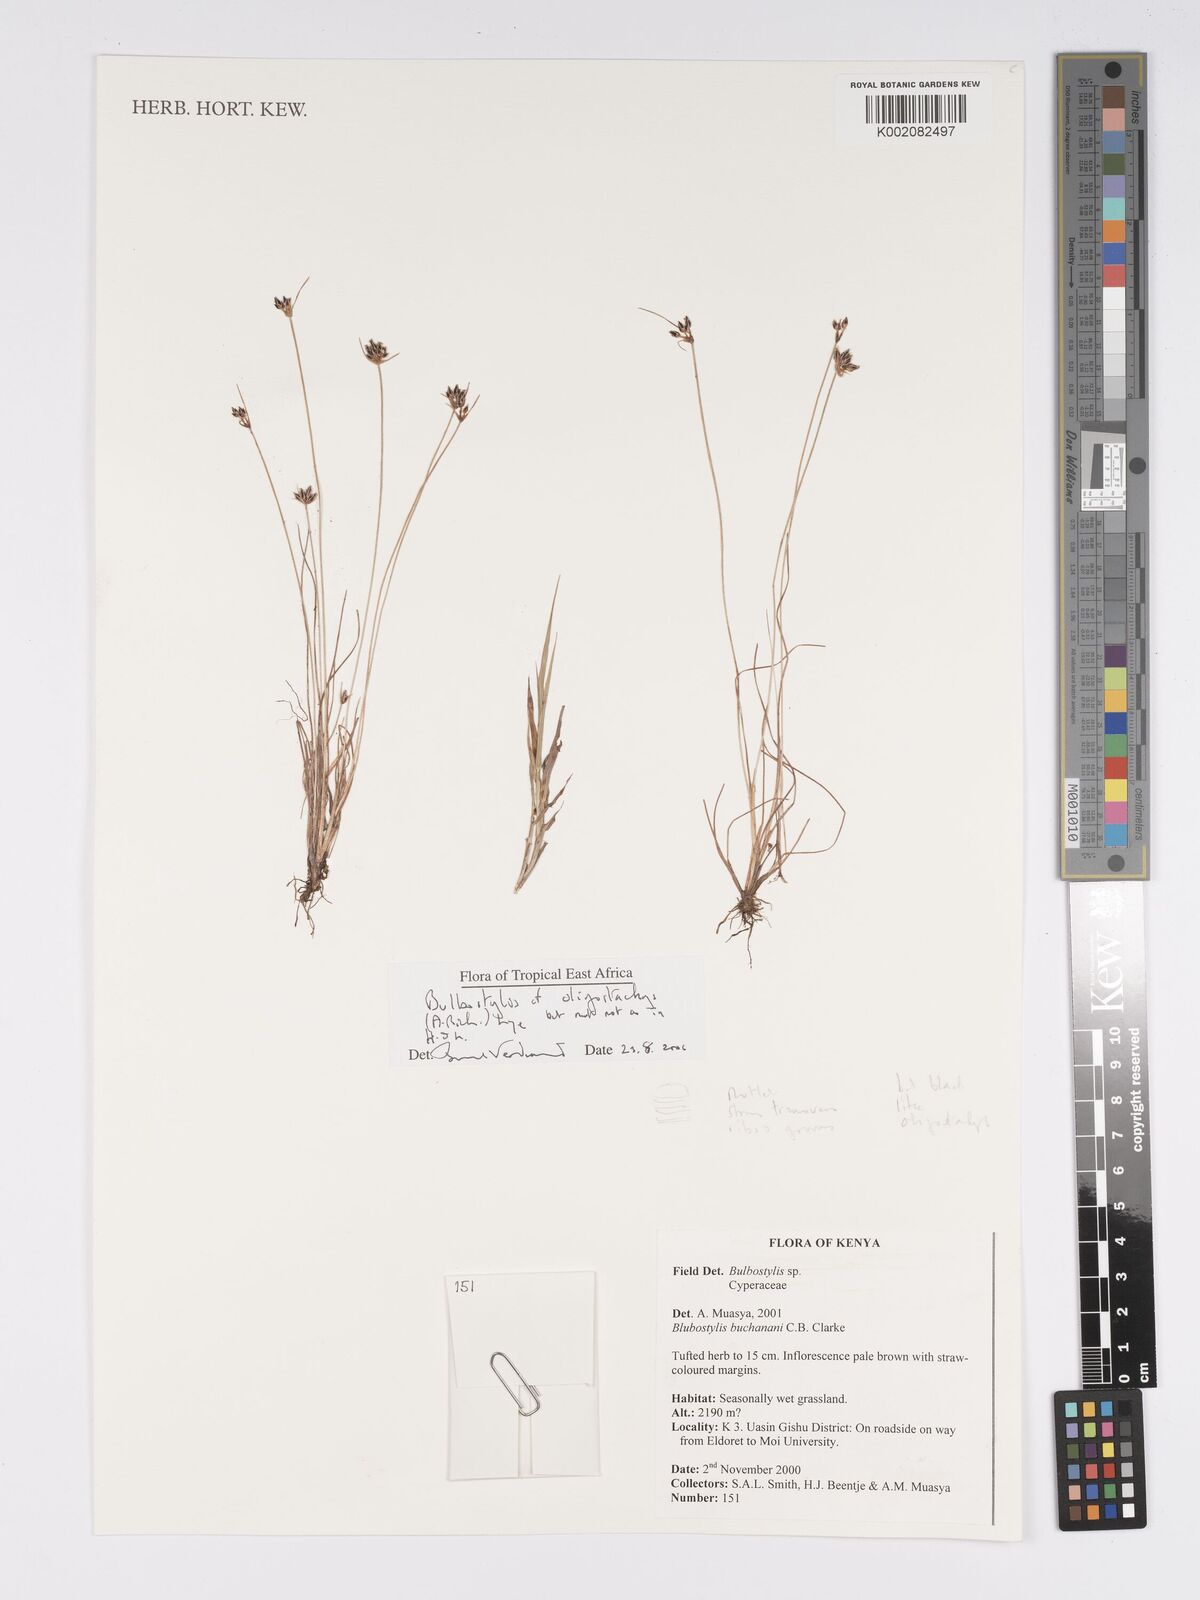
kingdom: Plantae
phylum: Tracheophyta
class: Liliopsida
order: Poales
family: Cyperaceae
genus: Bulbostylis
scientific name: Bulbostylis oligostachys
